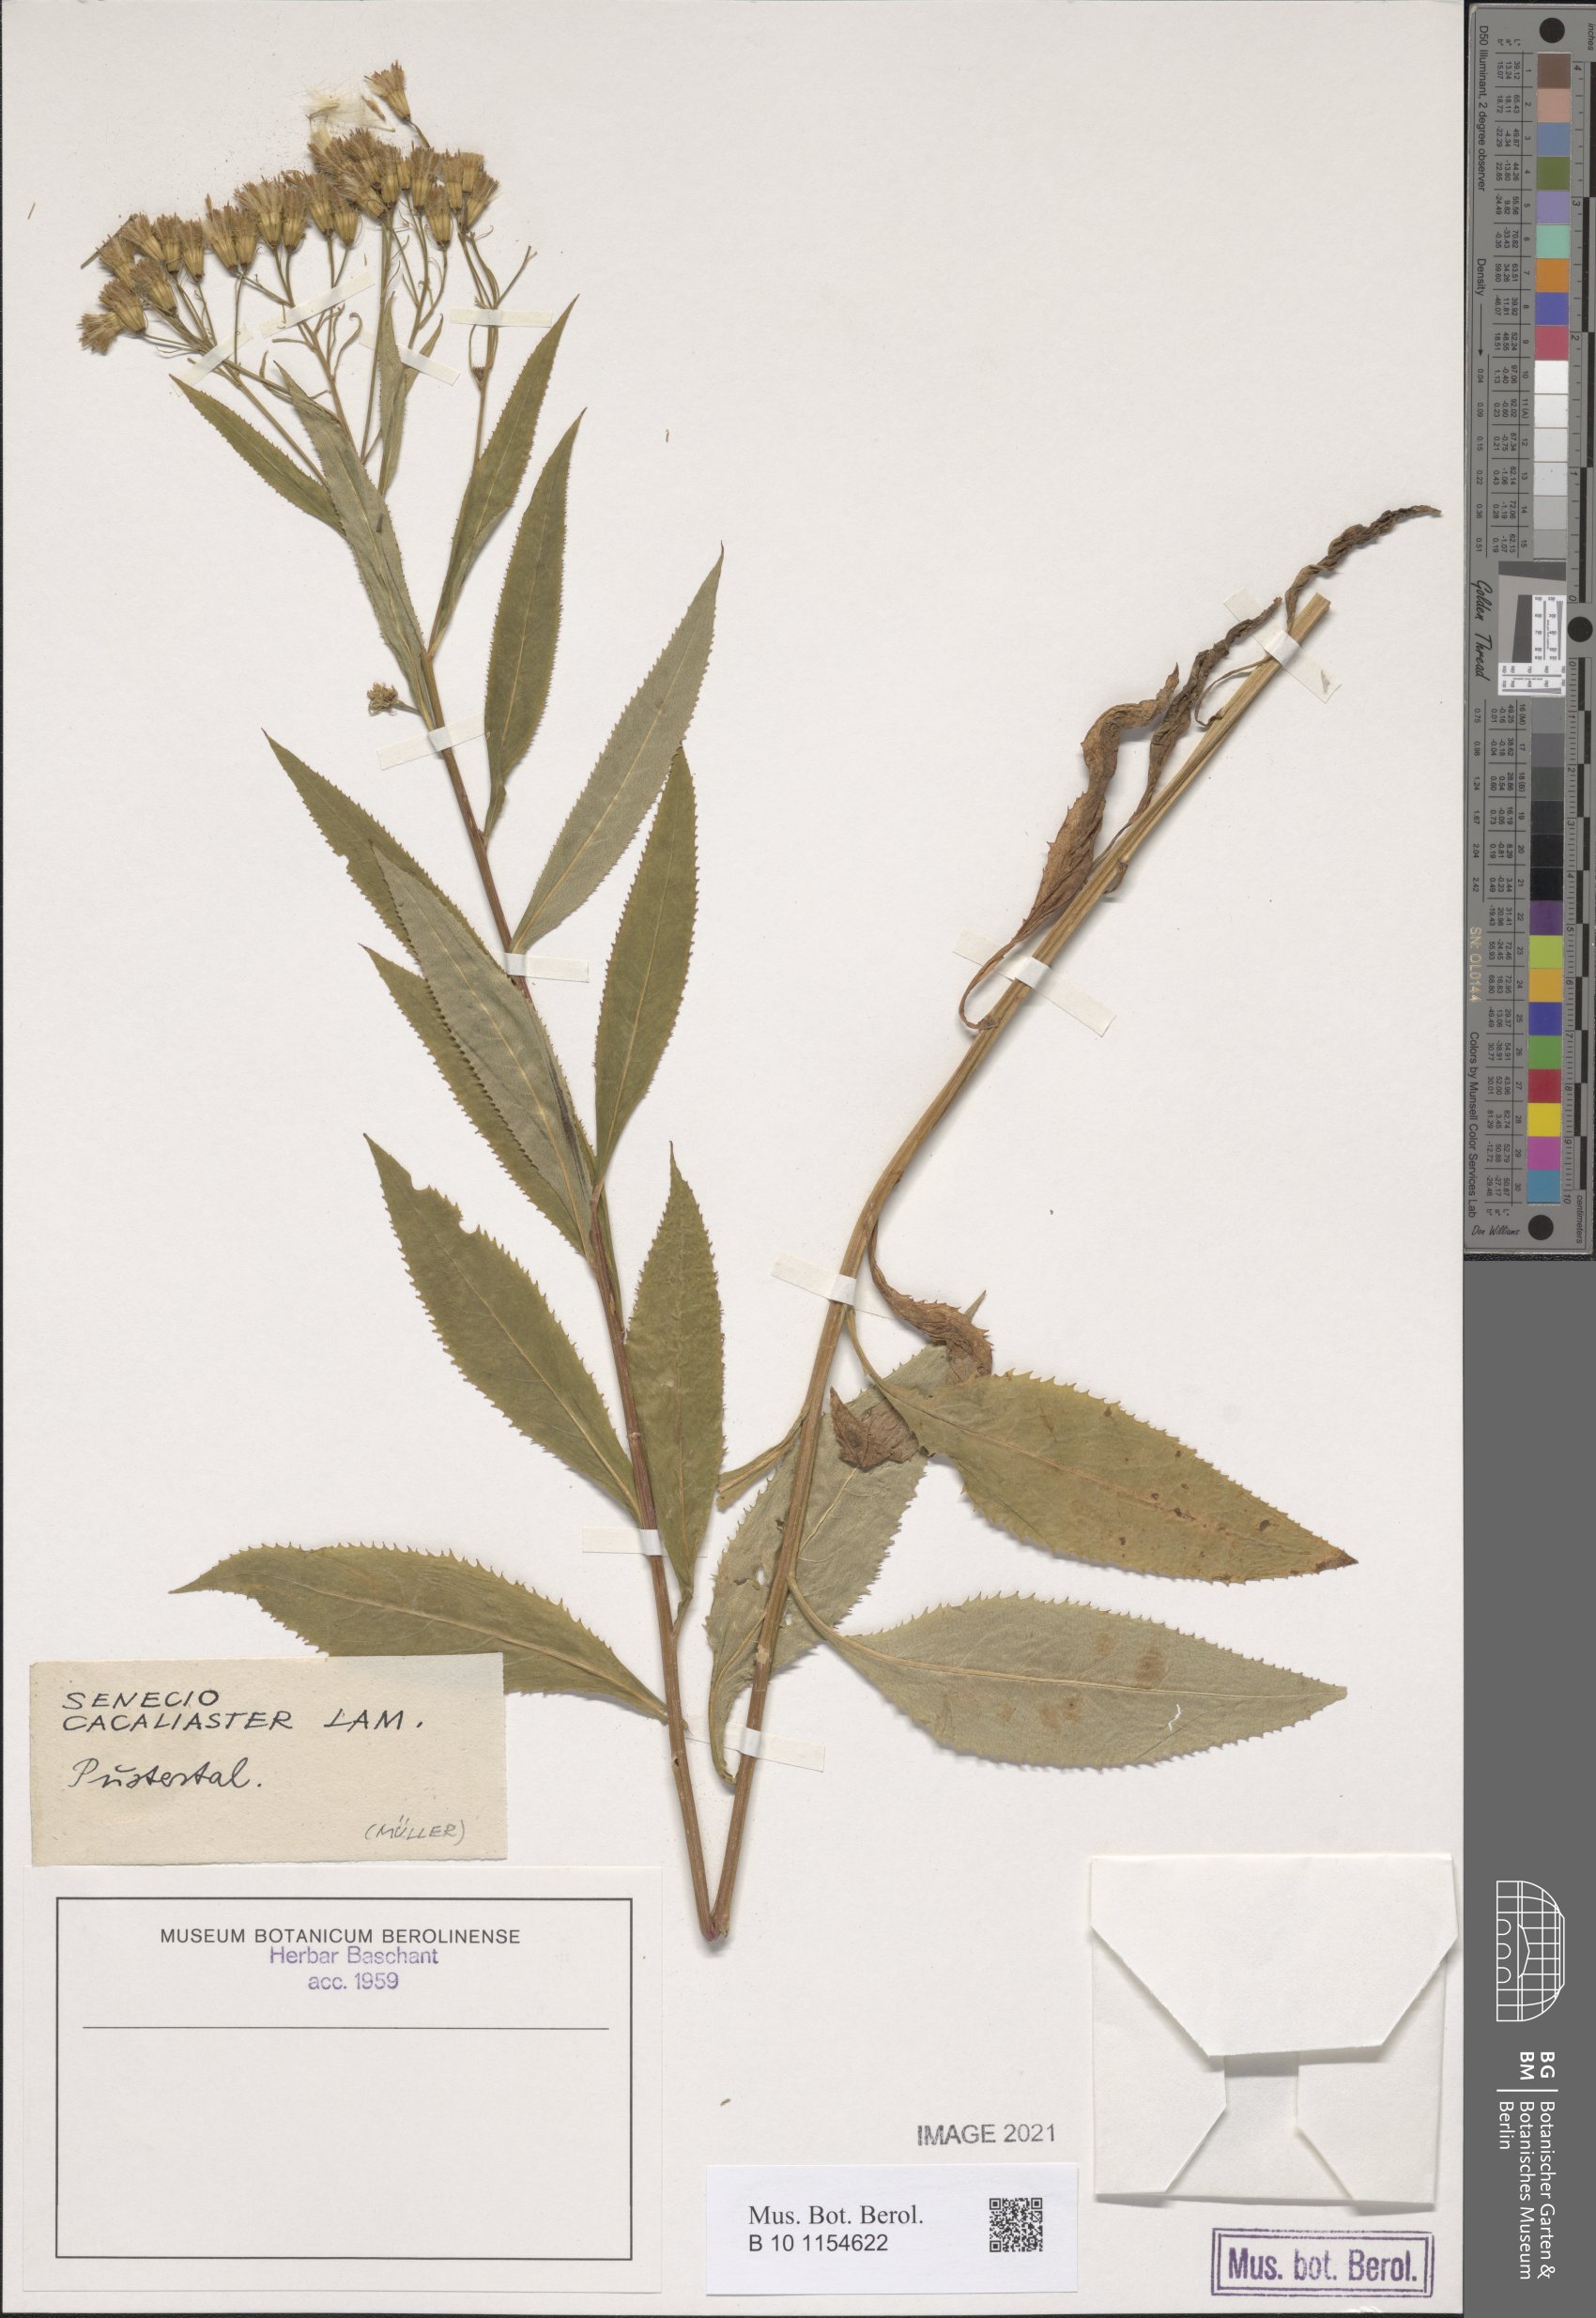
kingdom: Plantae
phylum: Tracheophyta
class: Magnoliopsida
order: Asterales
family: Asteraceae
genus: Senecio
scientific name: Senecio cacaliaster
